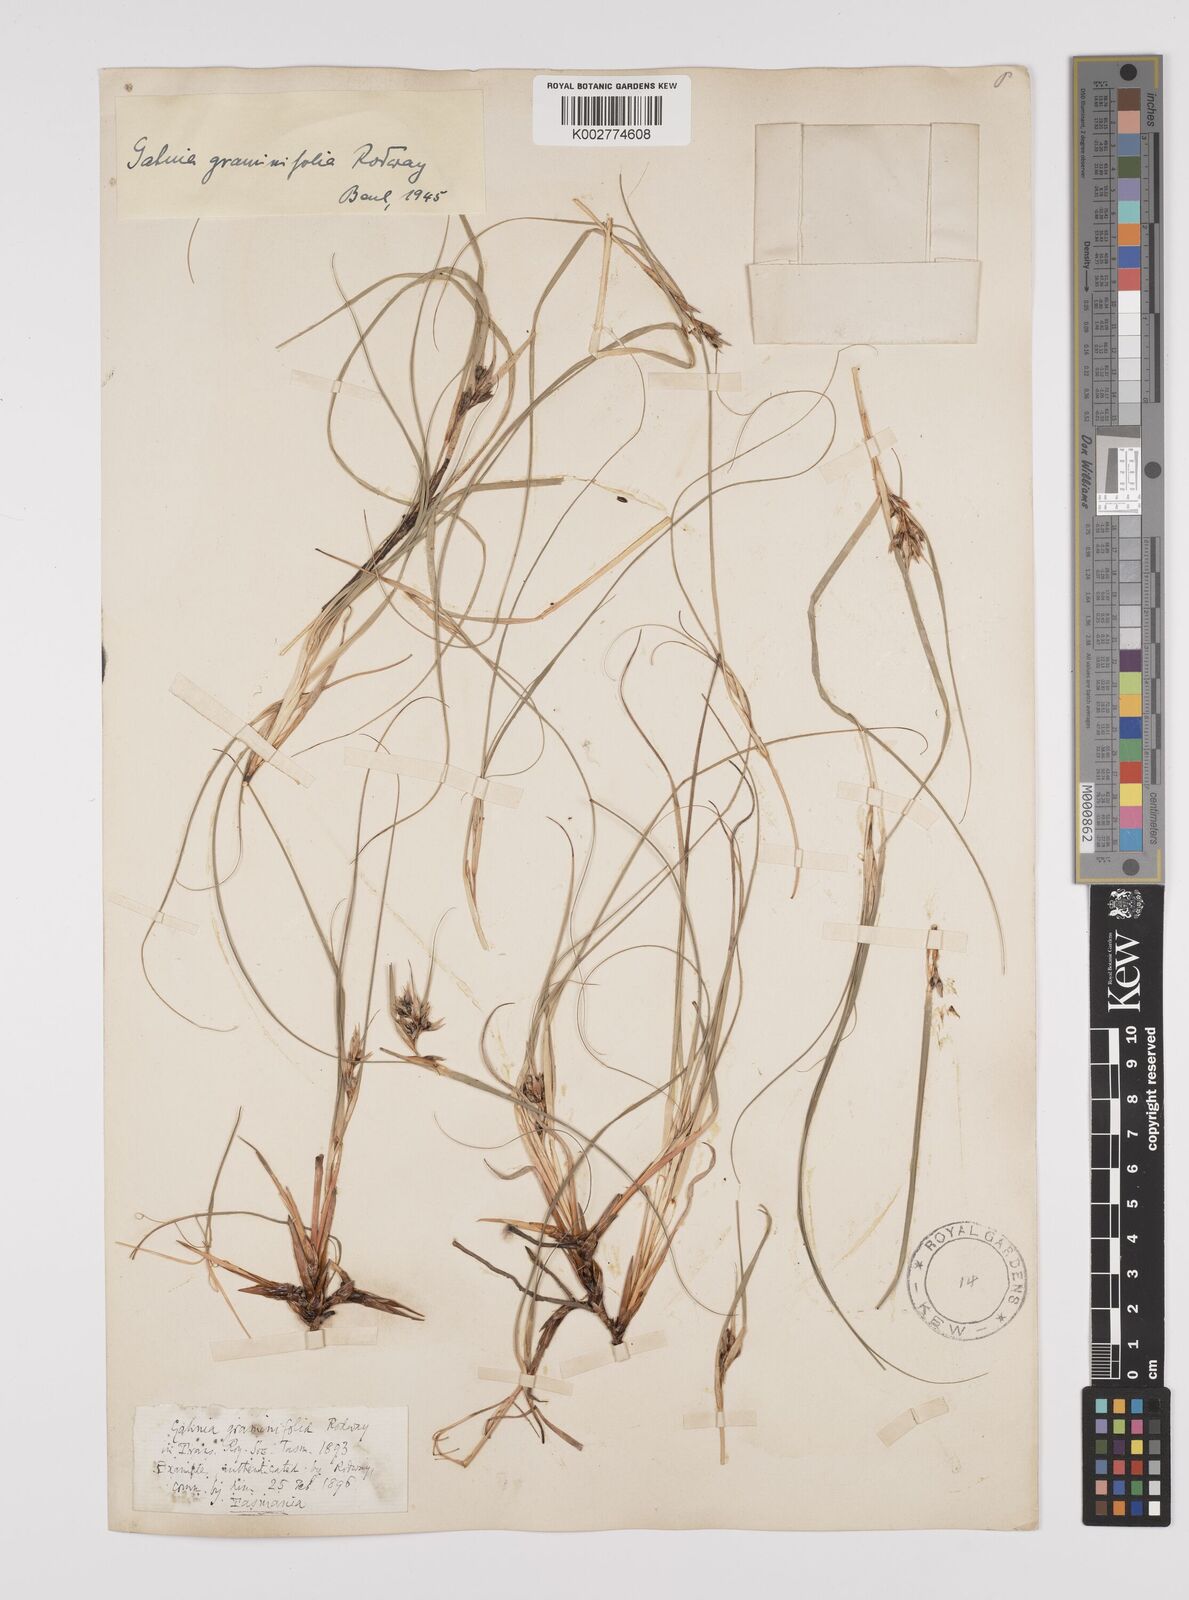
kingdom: Plantae
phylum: Tracheophyta
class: Liliopsida
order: Poales
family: Cyperaceae
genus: Gahnia
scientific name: Gahnia rodwayi
